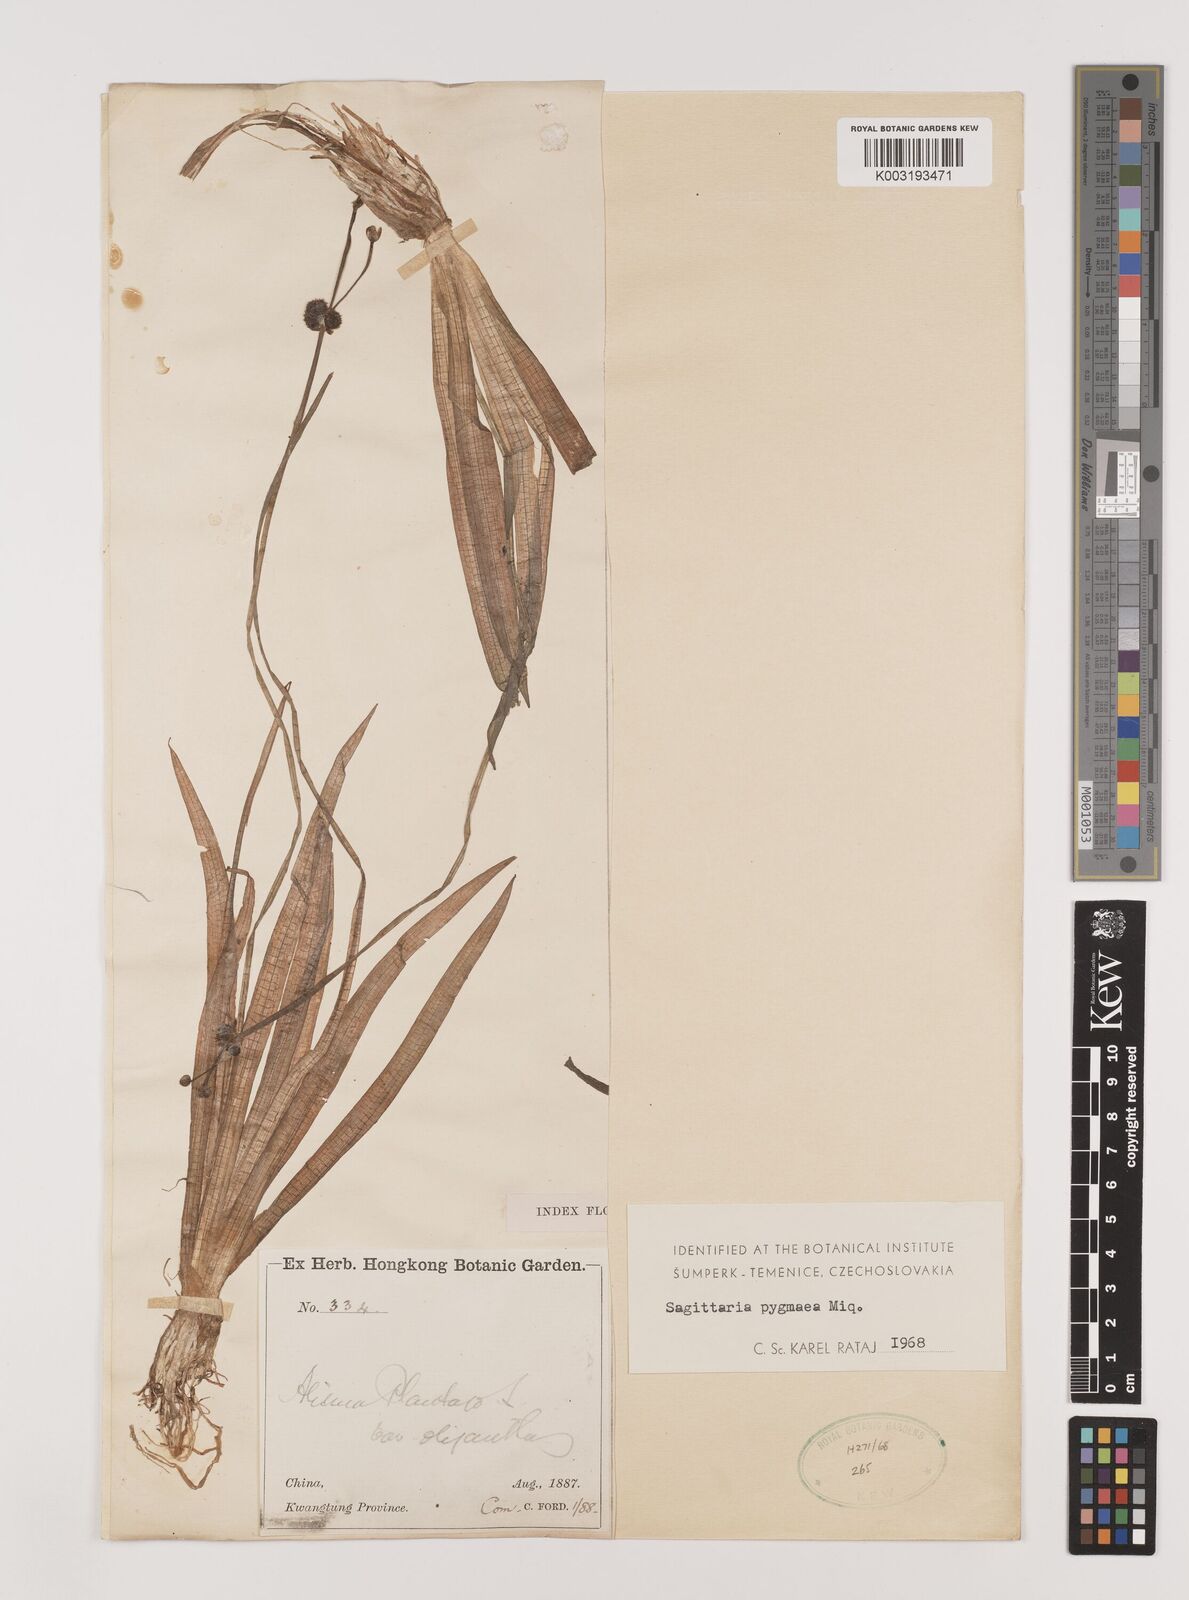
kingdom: Plantae
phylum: Tracheophyta
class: Liliopsida
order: Alismatales
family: Alismataceae
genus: Sagittaria
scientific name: Sagittaria pygmaea
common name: Pygmy arrowhead
